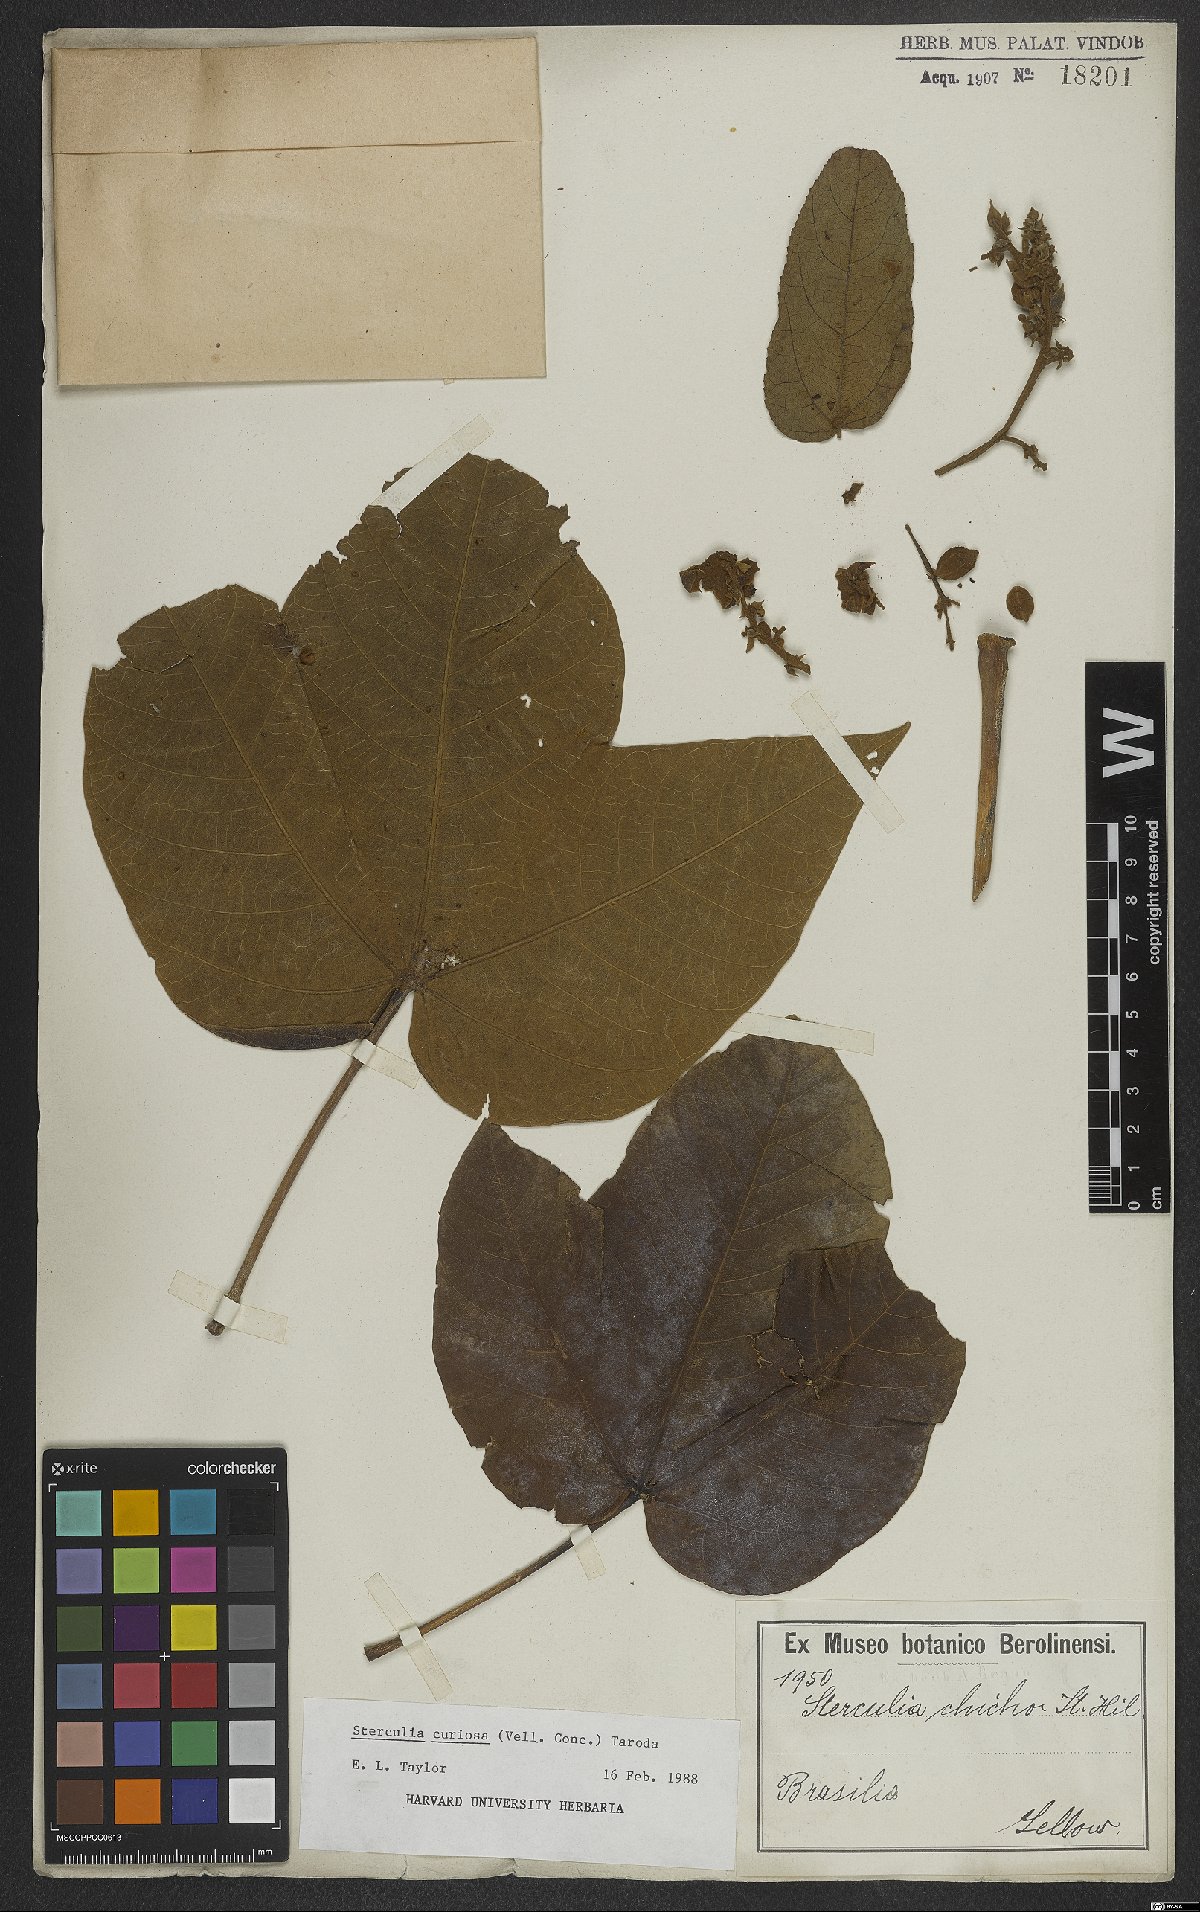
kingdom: Plantae
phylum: Tracheophyta
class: Magnoliopsida
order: Malvales
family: Malvaceae
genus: Sterculia
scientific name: Sterculia curiosa
